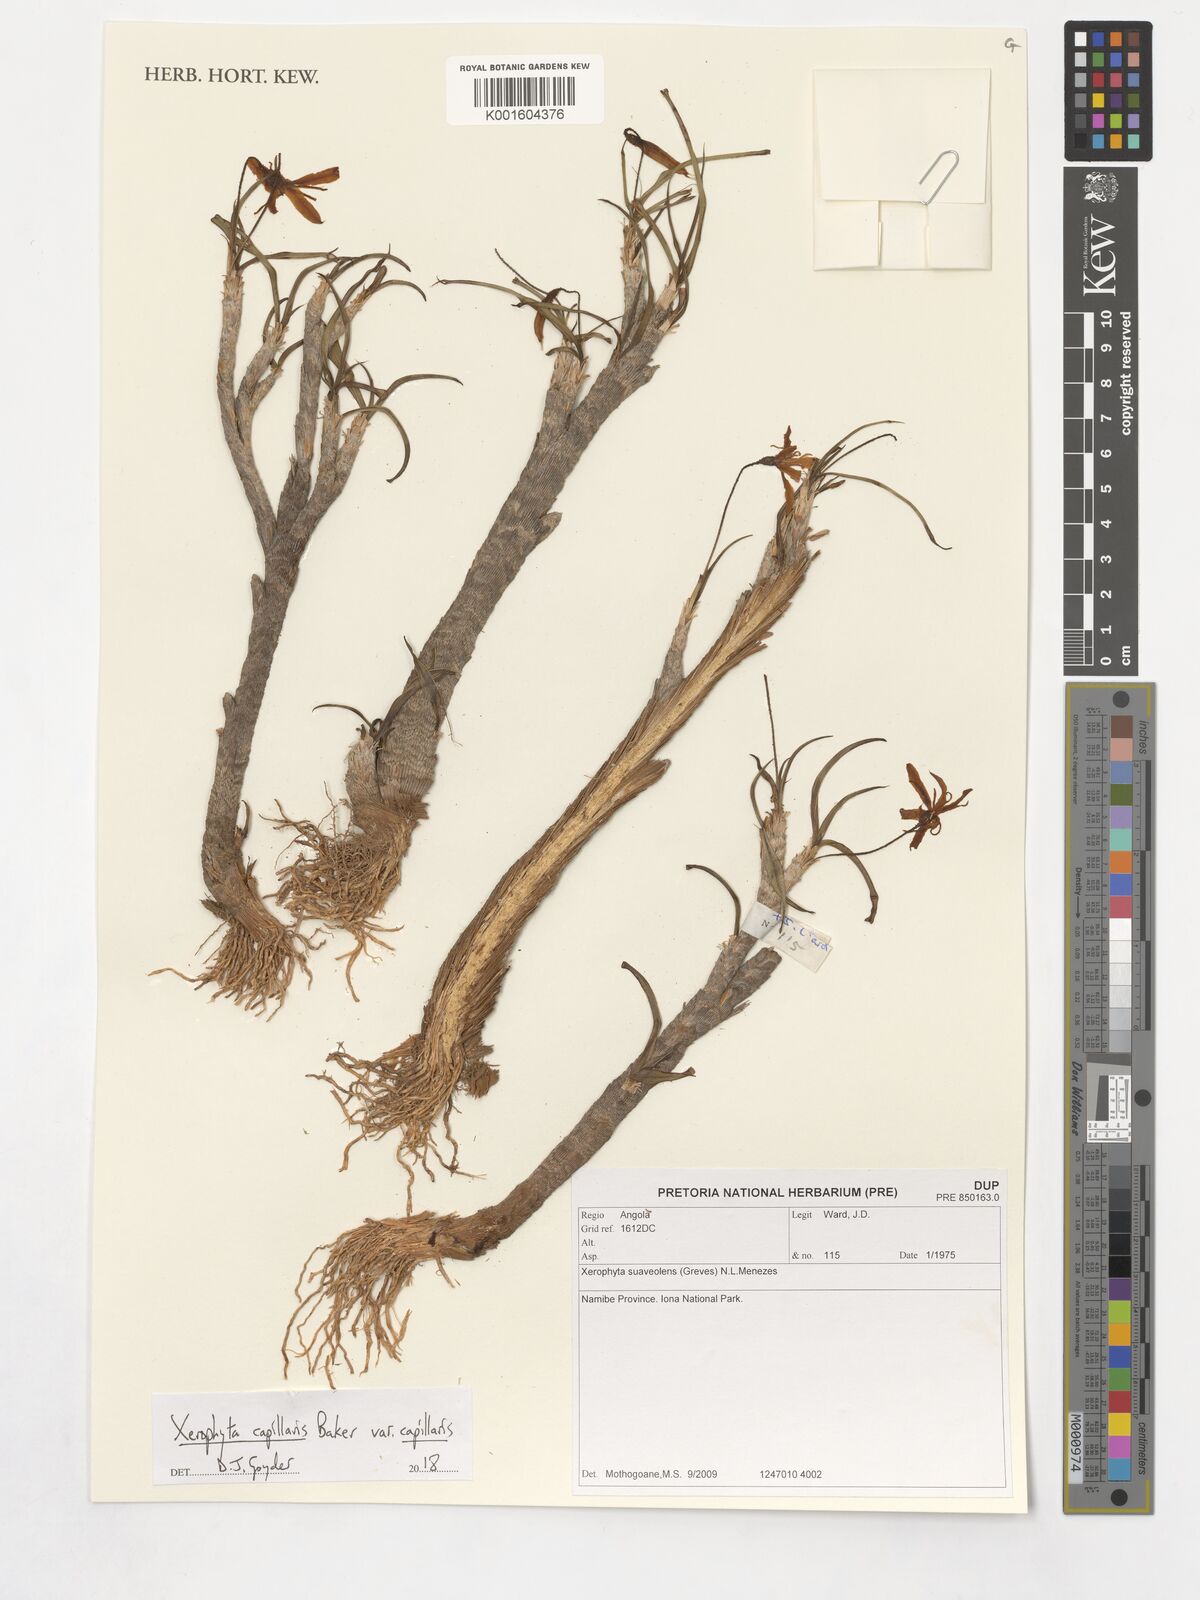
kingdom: Plantae
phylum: Tracheophyta
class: Liliopsida
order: Pandanales
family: Velloziaceae
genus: Xerophyta
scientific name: Xerophyta suaveolens
